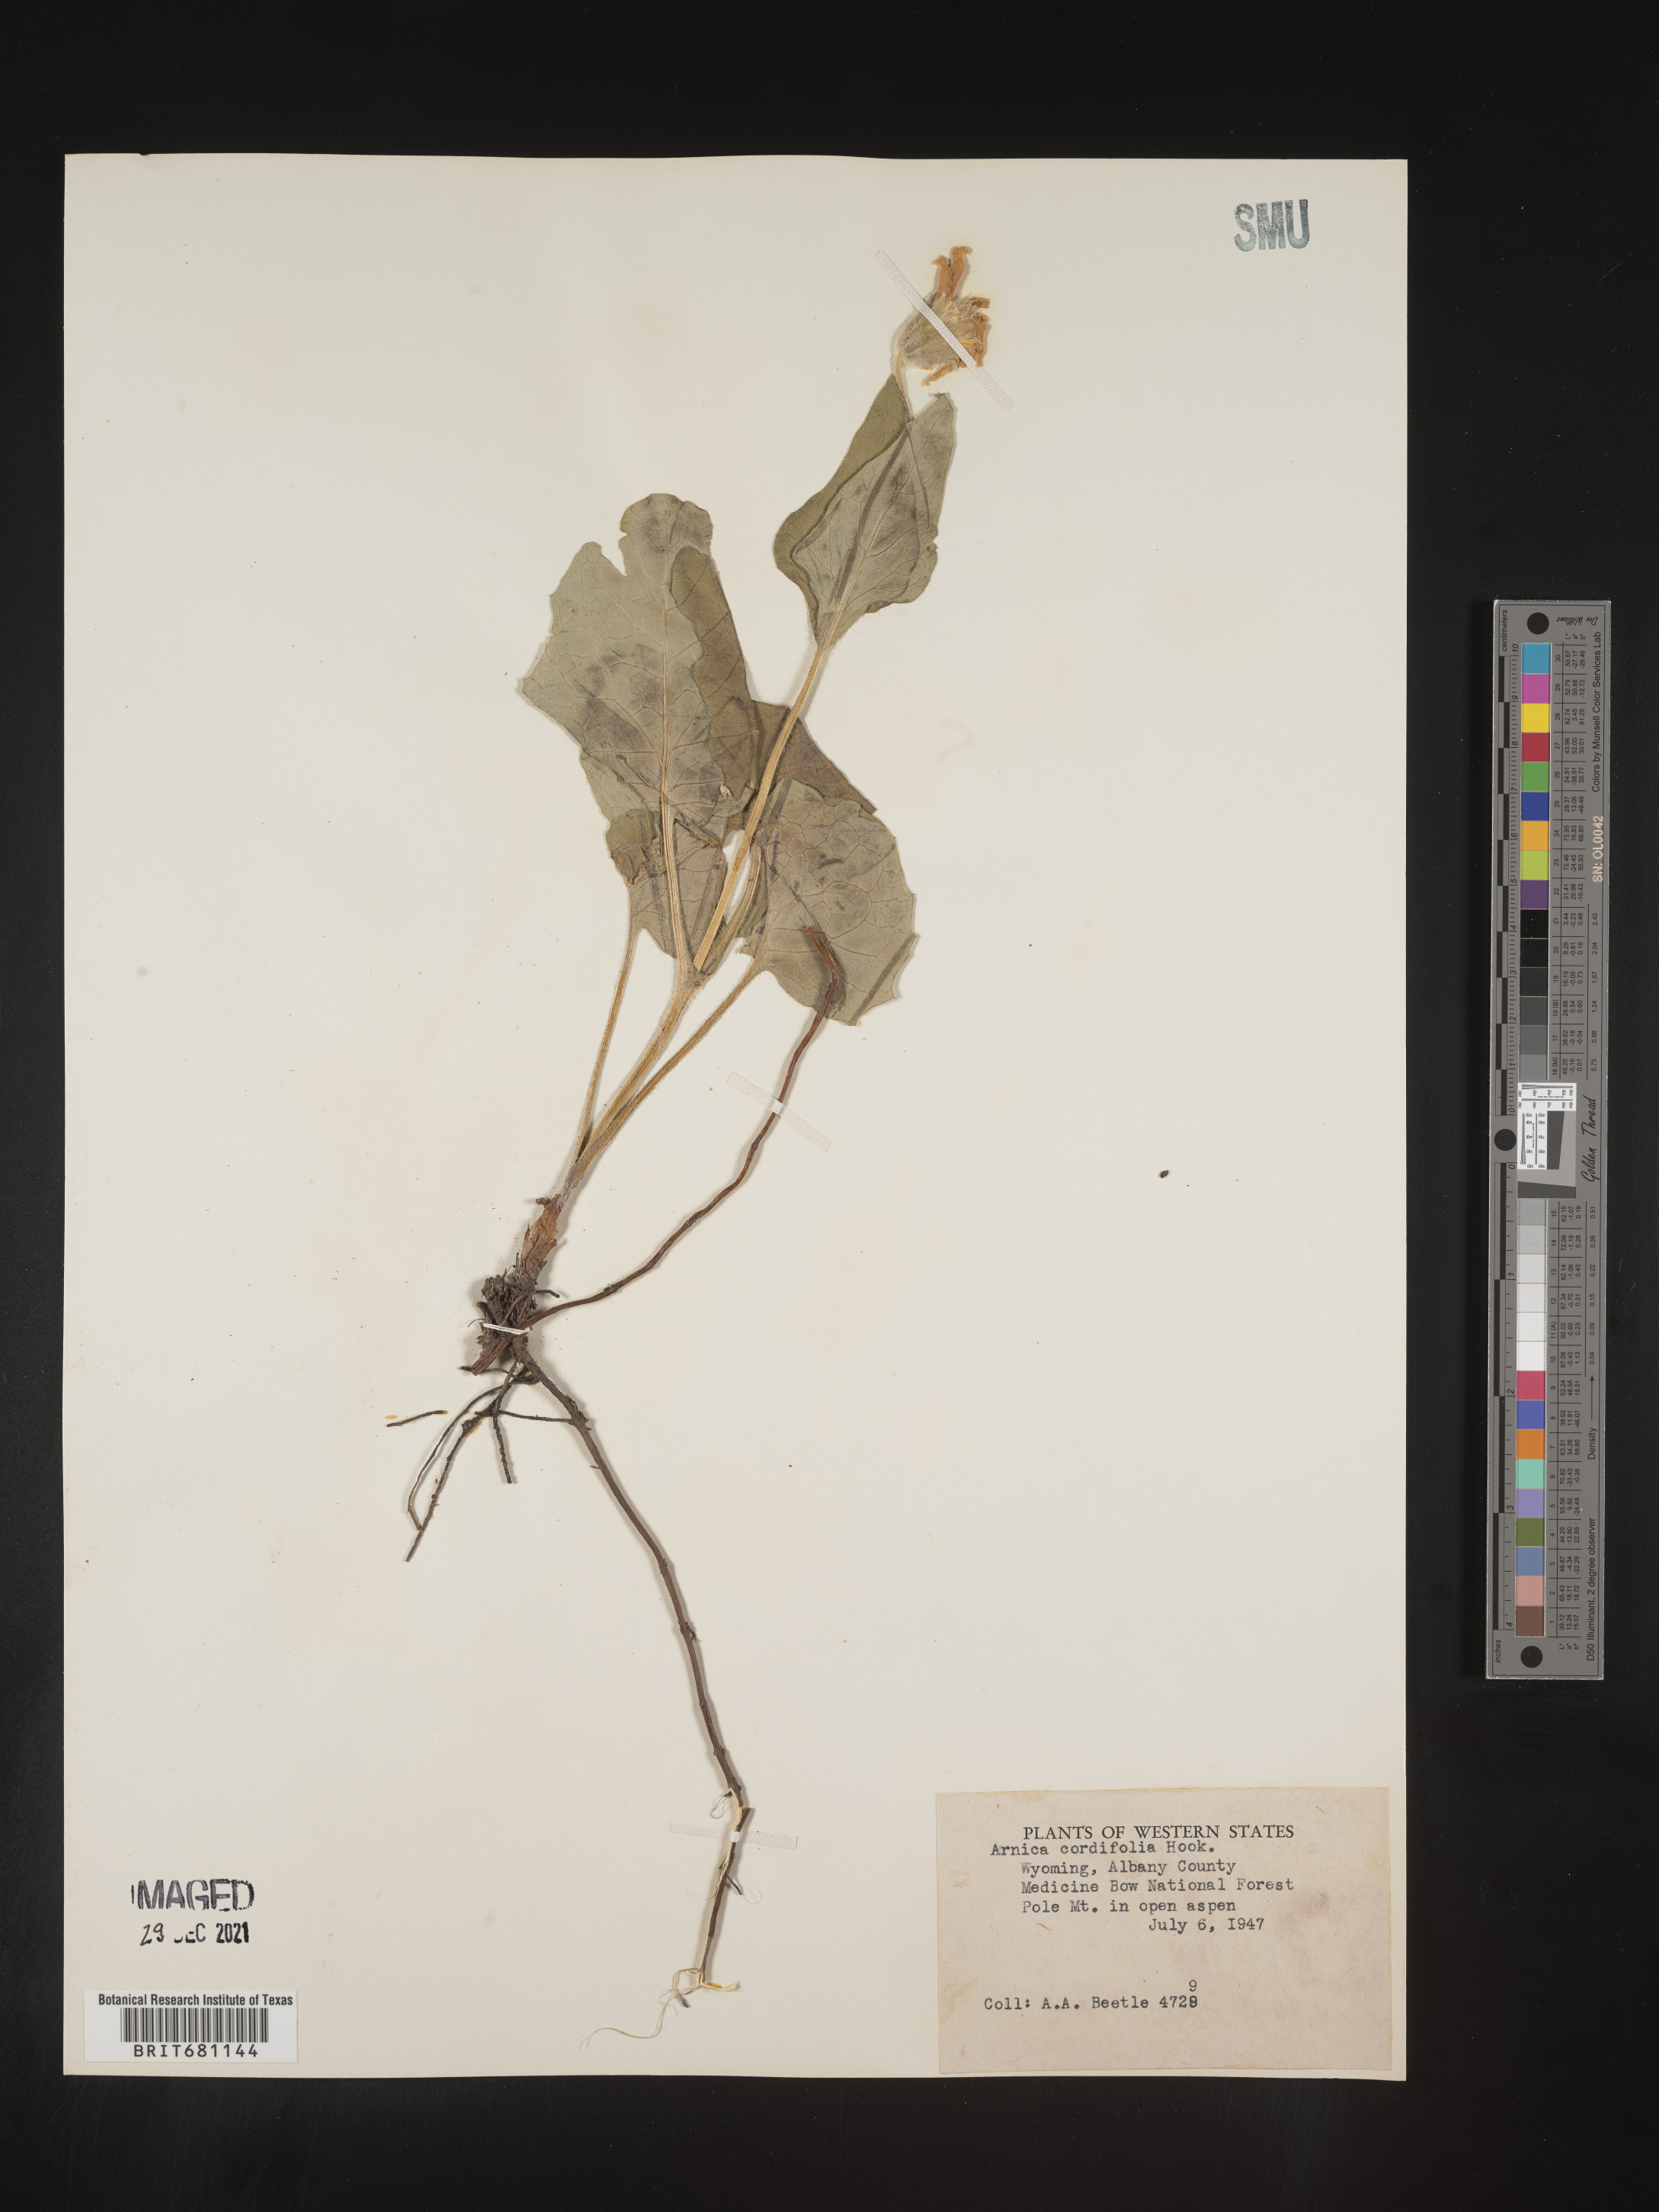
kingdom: Plantae
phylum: Tracheophyta
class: Magnoliopsida
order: Asterales
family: Asteraceae
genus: Arnica
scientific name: Arnica cordifolia
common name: Heart-leaf arnica
